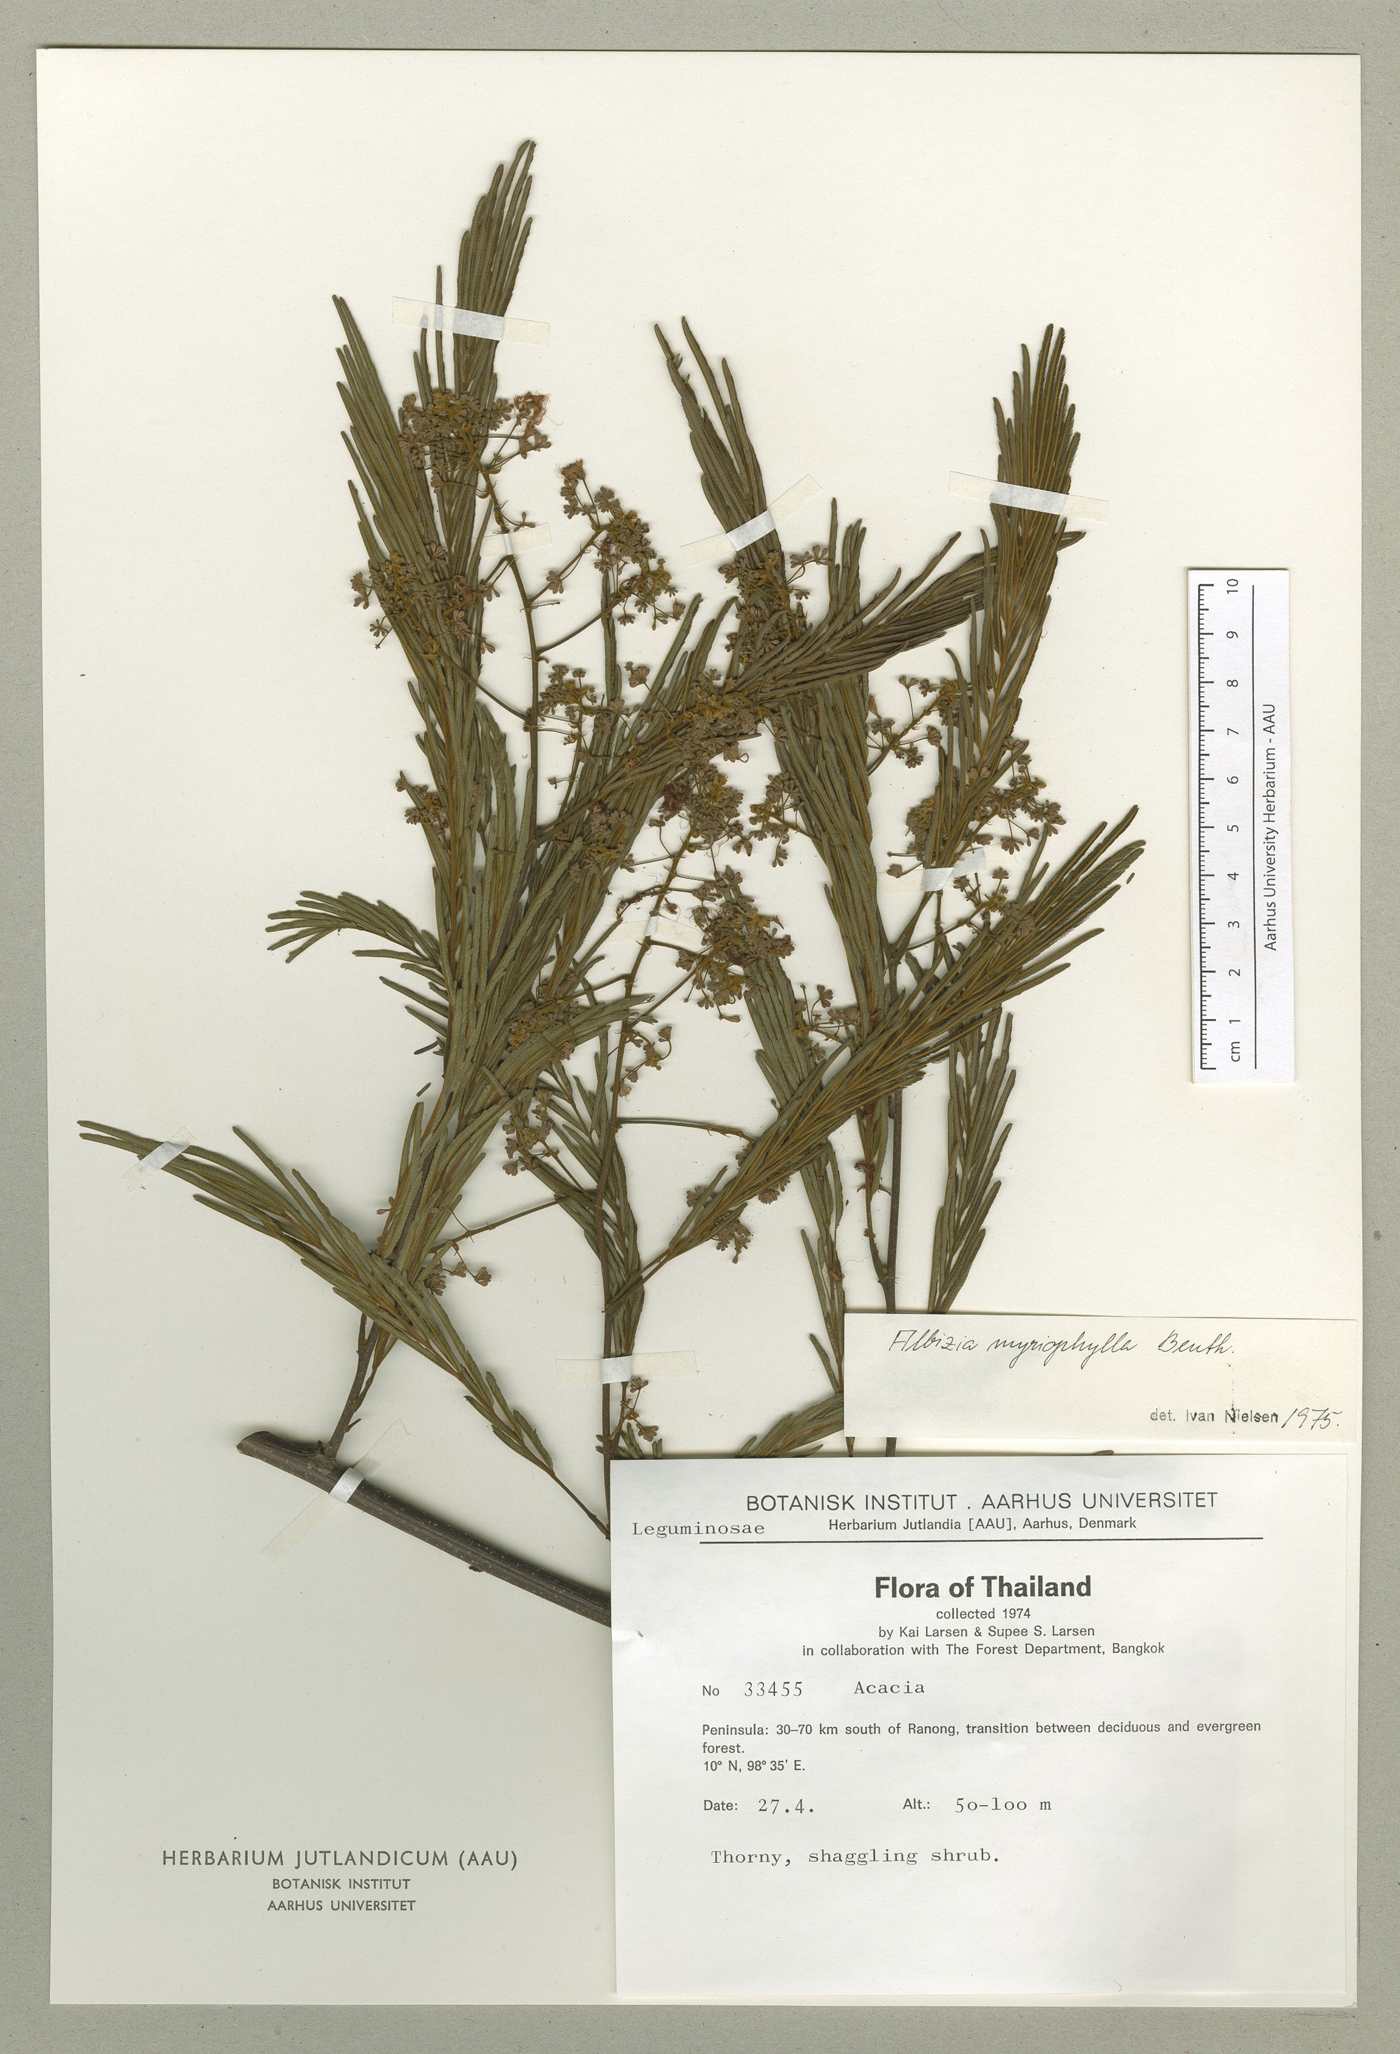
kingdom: Plantae
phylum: Tracheophyta
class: Magnoliopsida
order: Fabales
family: Fabaceae
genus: Albizia
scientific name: Albizia myriophylla
